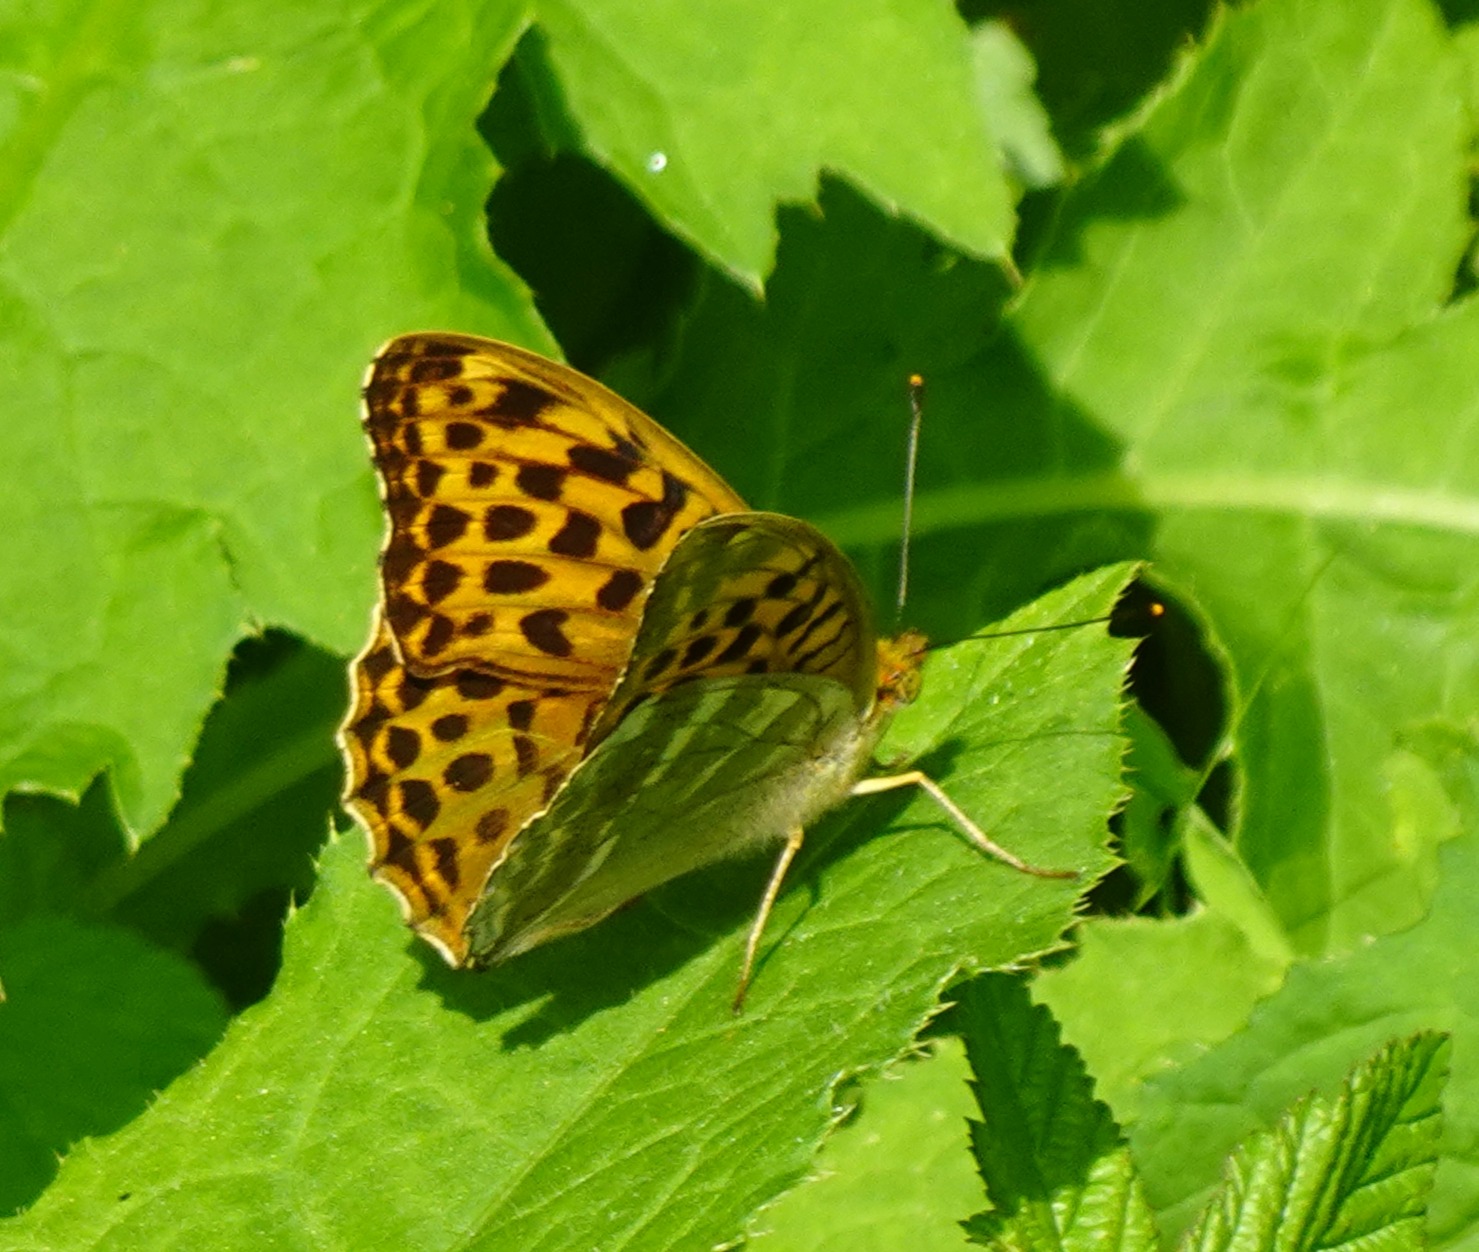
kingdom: Animalia
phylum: Arthropoda
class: Insecta
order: Lepidoptera
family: Nymphalidae
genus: Argynnis
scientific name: Argynnis paphia
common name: Kejserkåbe
